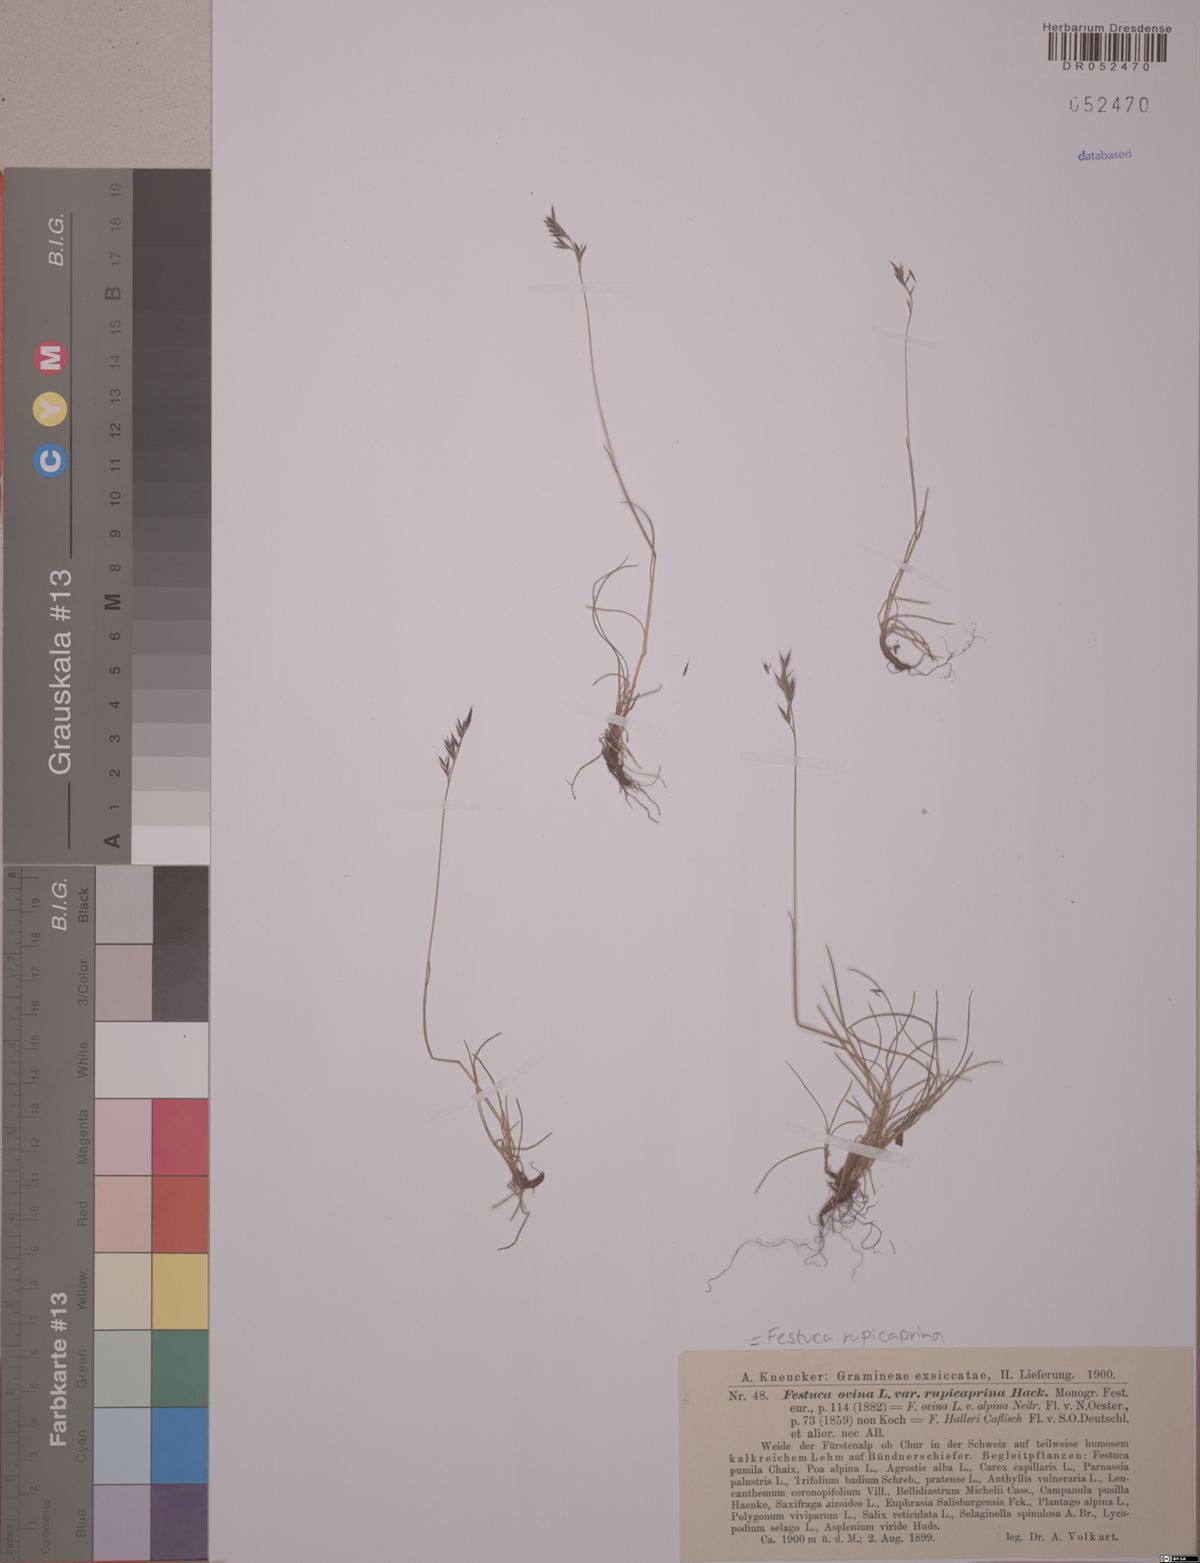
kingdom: Plantae
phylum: Tracheophyta
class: Liliopsida
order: Poales
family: Poaceae
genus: Festuca
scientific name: Festuca rupicaprina
